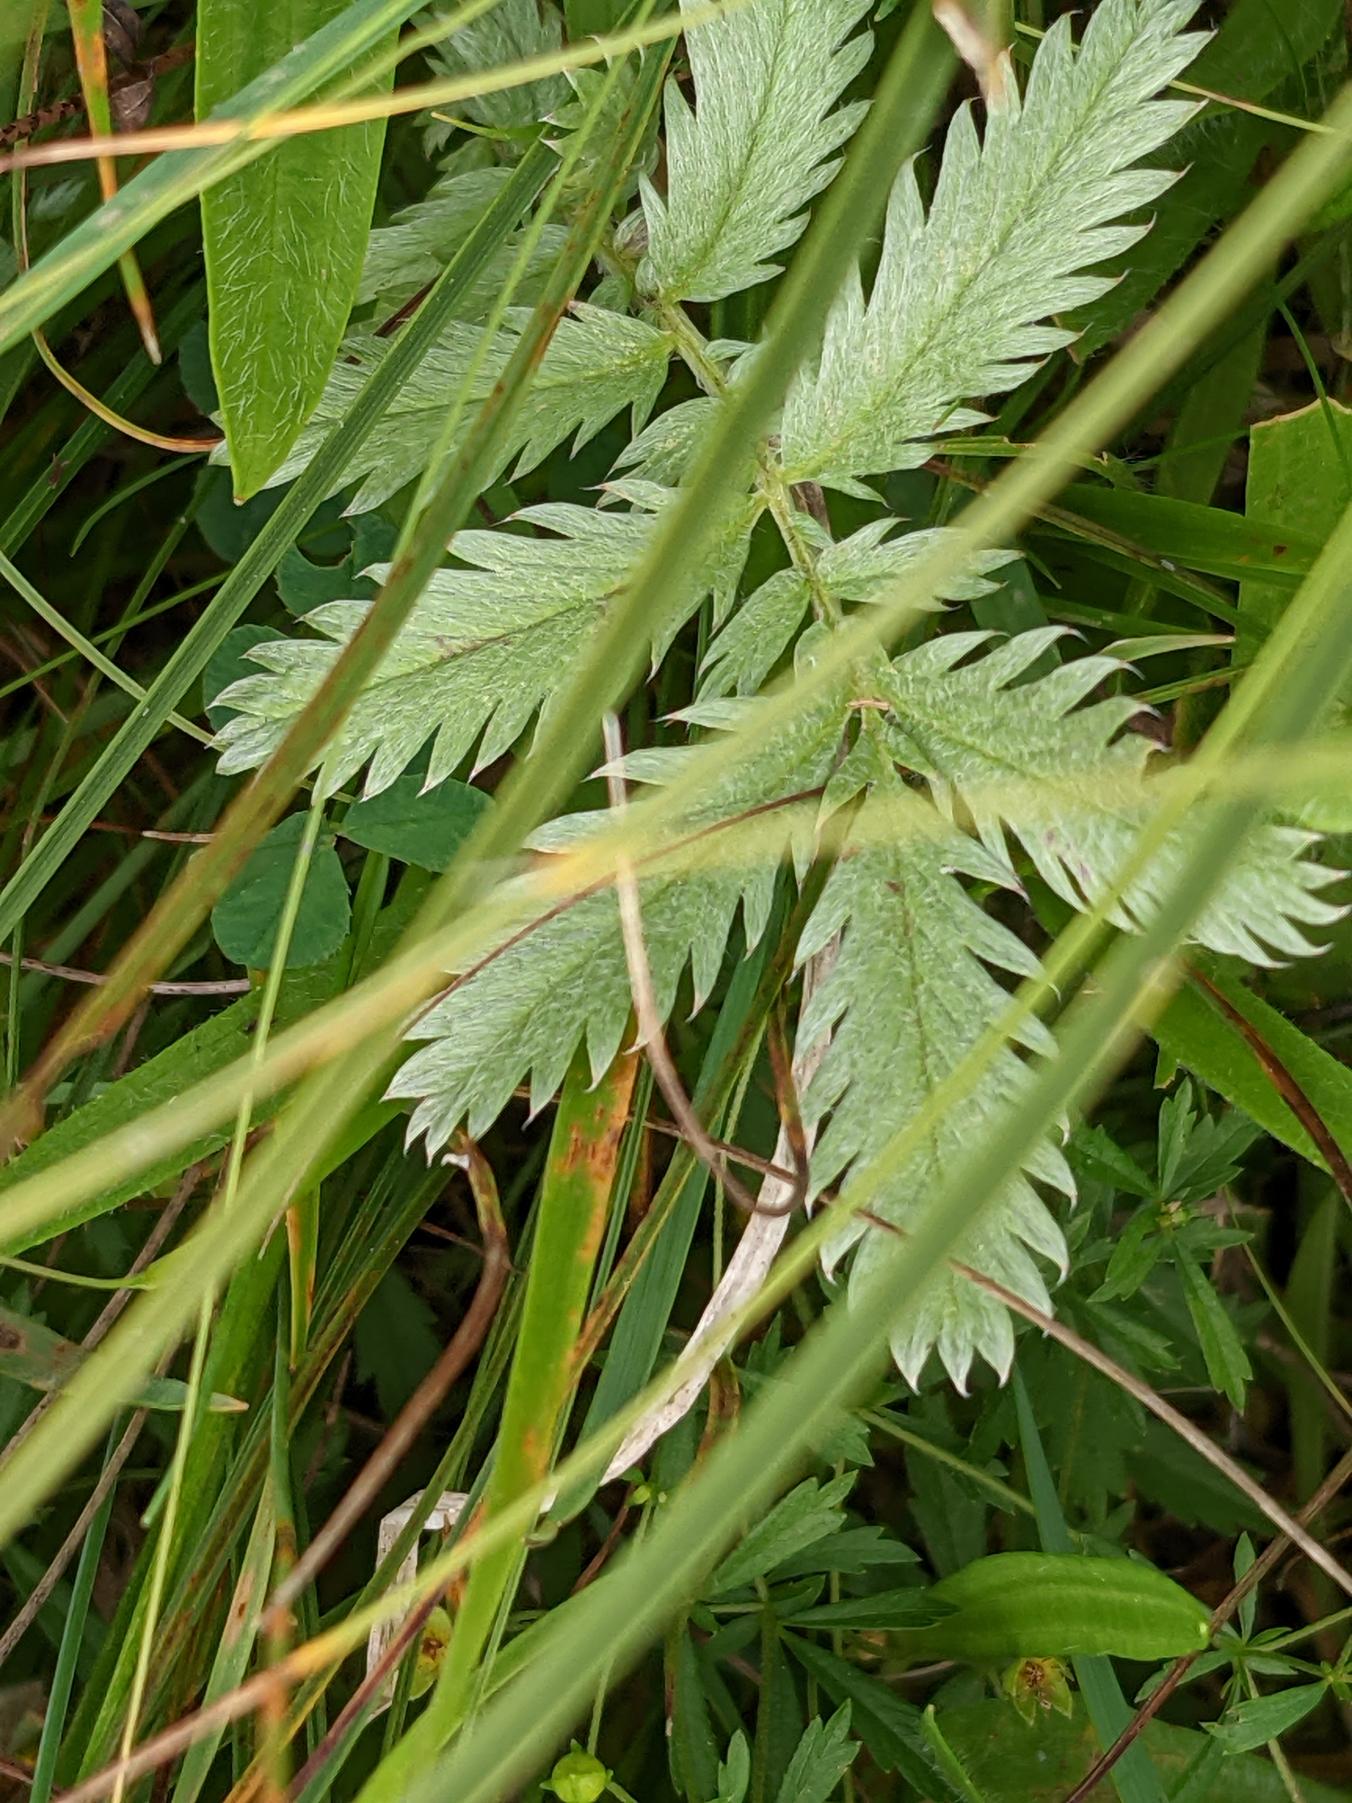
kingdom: Plantae
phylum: Tracheophyta
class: Magnoliopsida
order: Rosales
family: Rosaceae
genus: Argentina
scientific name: Argentina anserina
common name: Gåsepotentil
